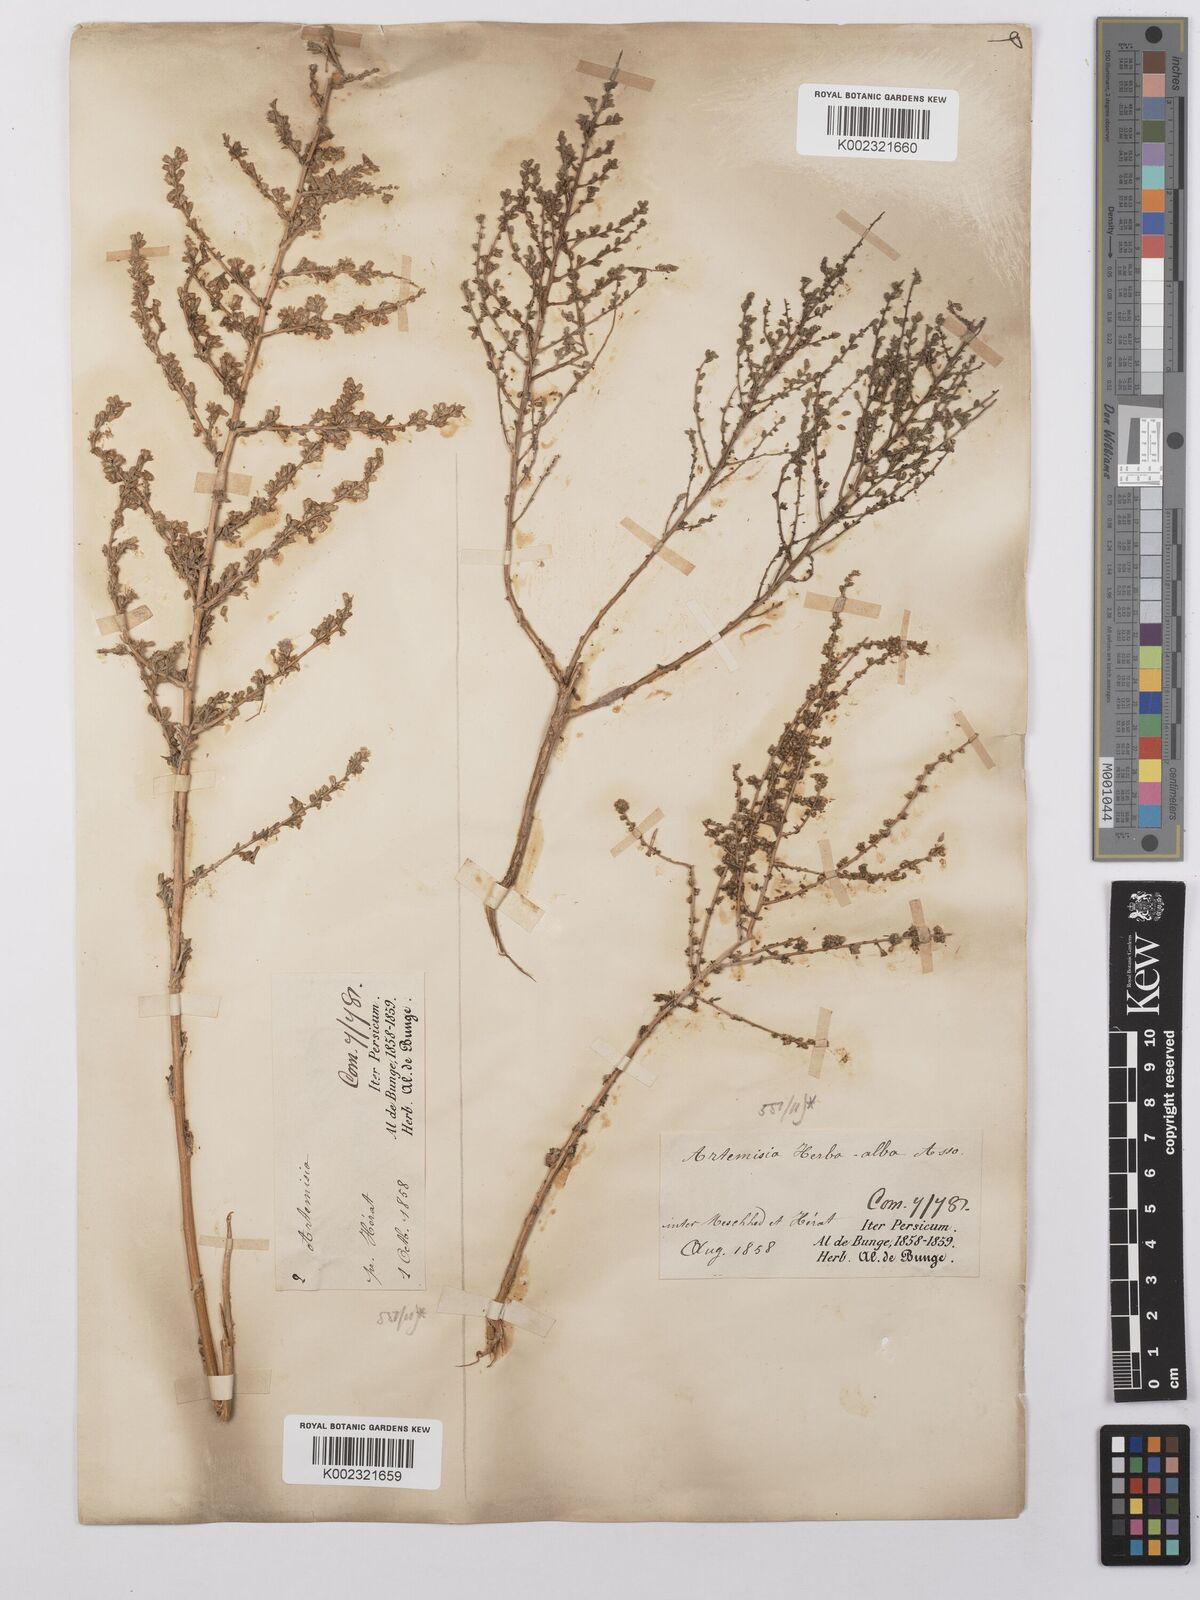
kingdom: Plantae
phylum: Tracheophyta
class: Magnoliopsida
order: Asterales
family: Asteraceae
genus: Artemisia
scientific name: Artemisia herba-alba
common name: White wormwood
